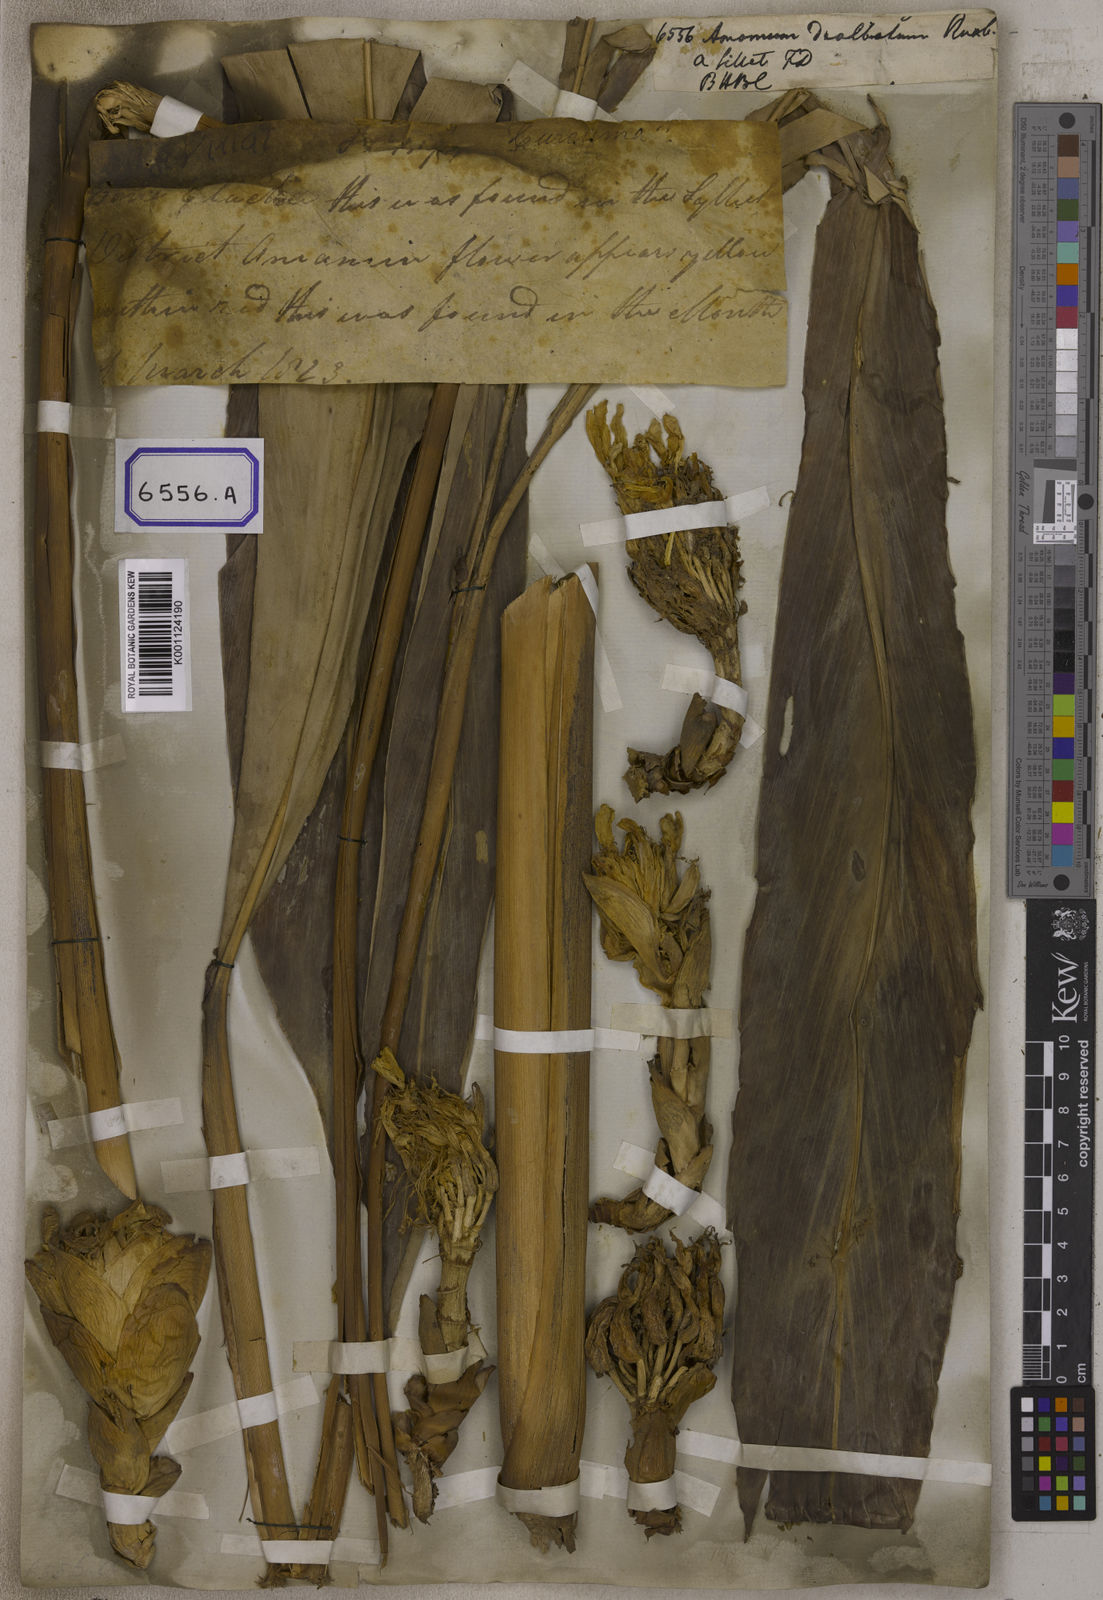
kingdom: Plantae
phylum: Tracheophyta
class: Liliopsida
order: Zingiberales
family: Zingiberaceae
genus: Amomum
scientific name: Amomum dealbatum
